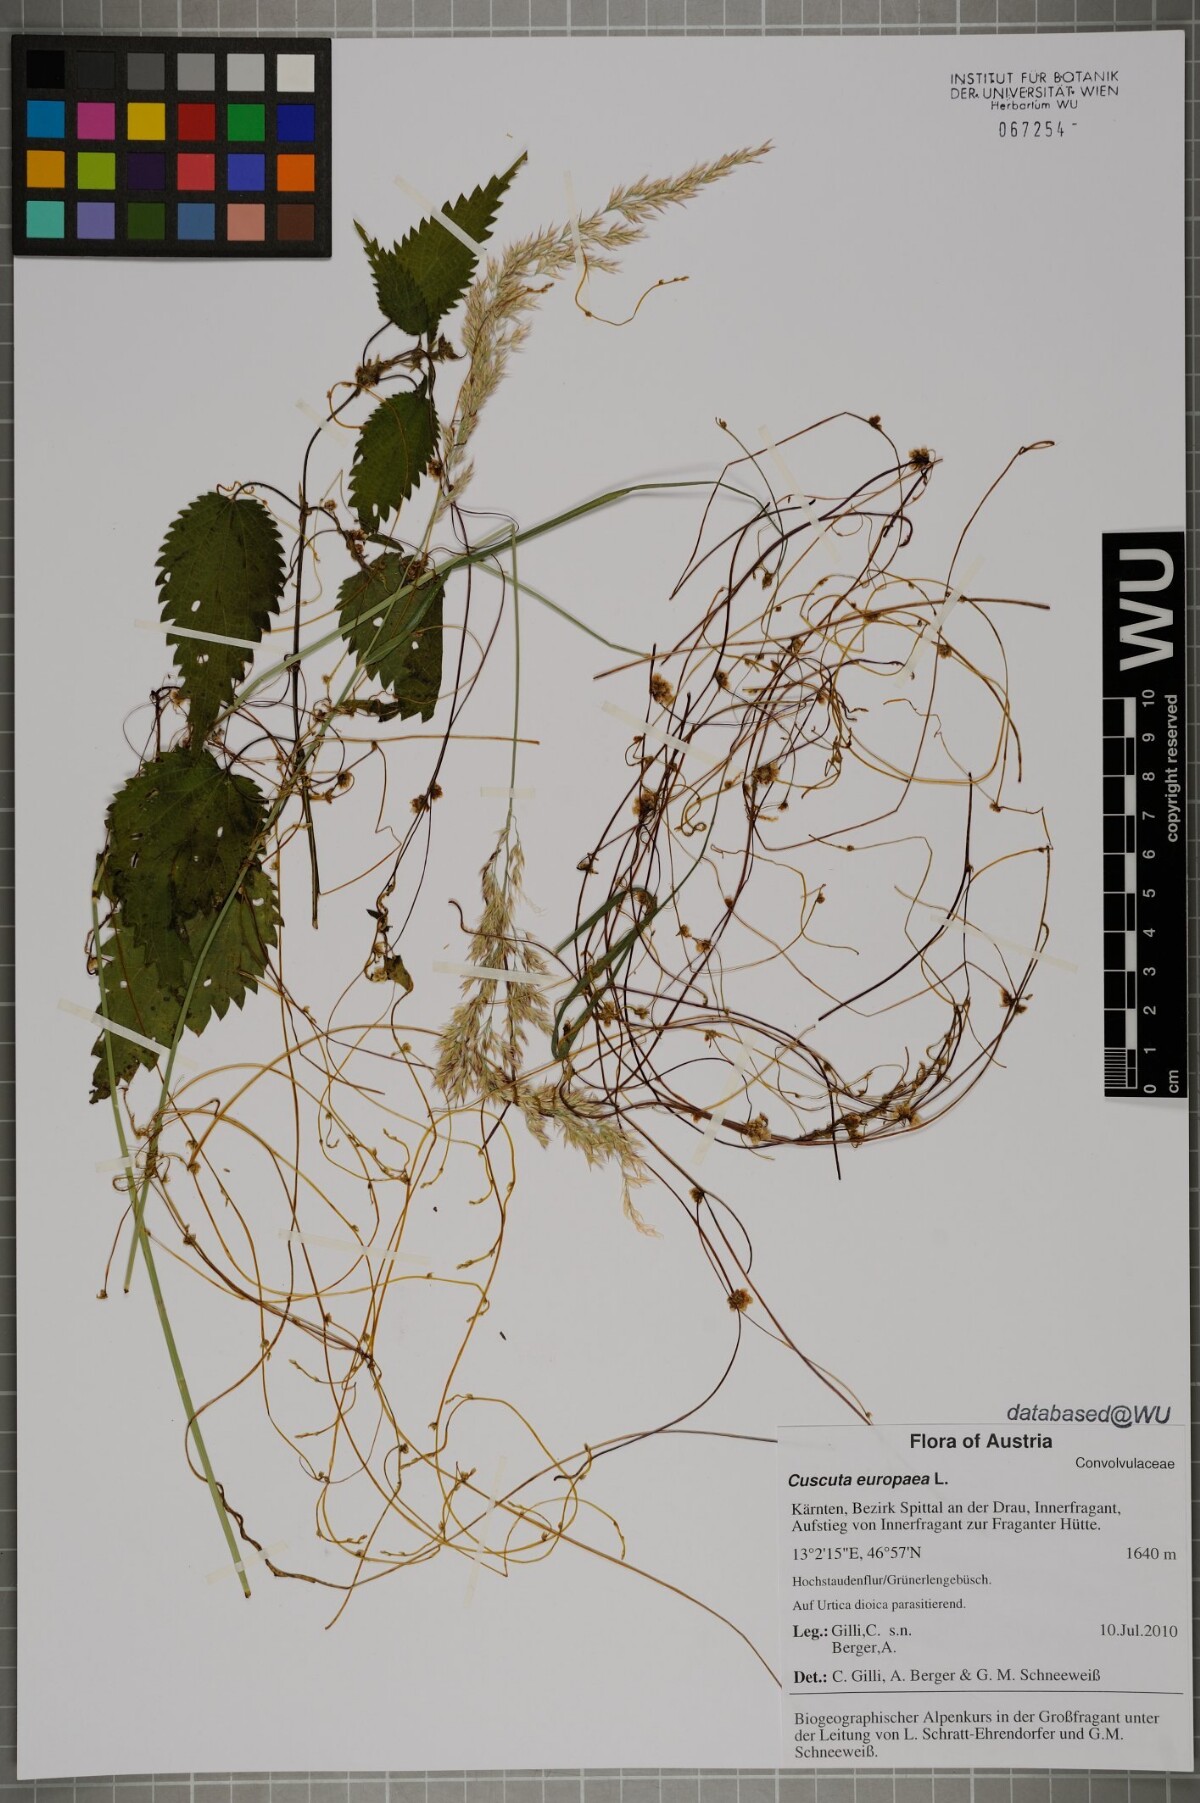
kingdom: Plantae
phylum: Tracheophyta
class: Magnoliopsida
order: Solanales
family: Convolvulaceae
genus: Cuscuta
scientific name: Cuscuta europaea
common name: Greater dodder
